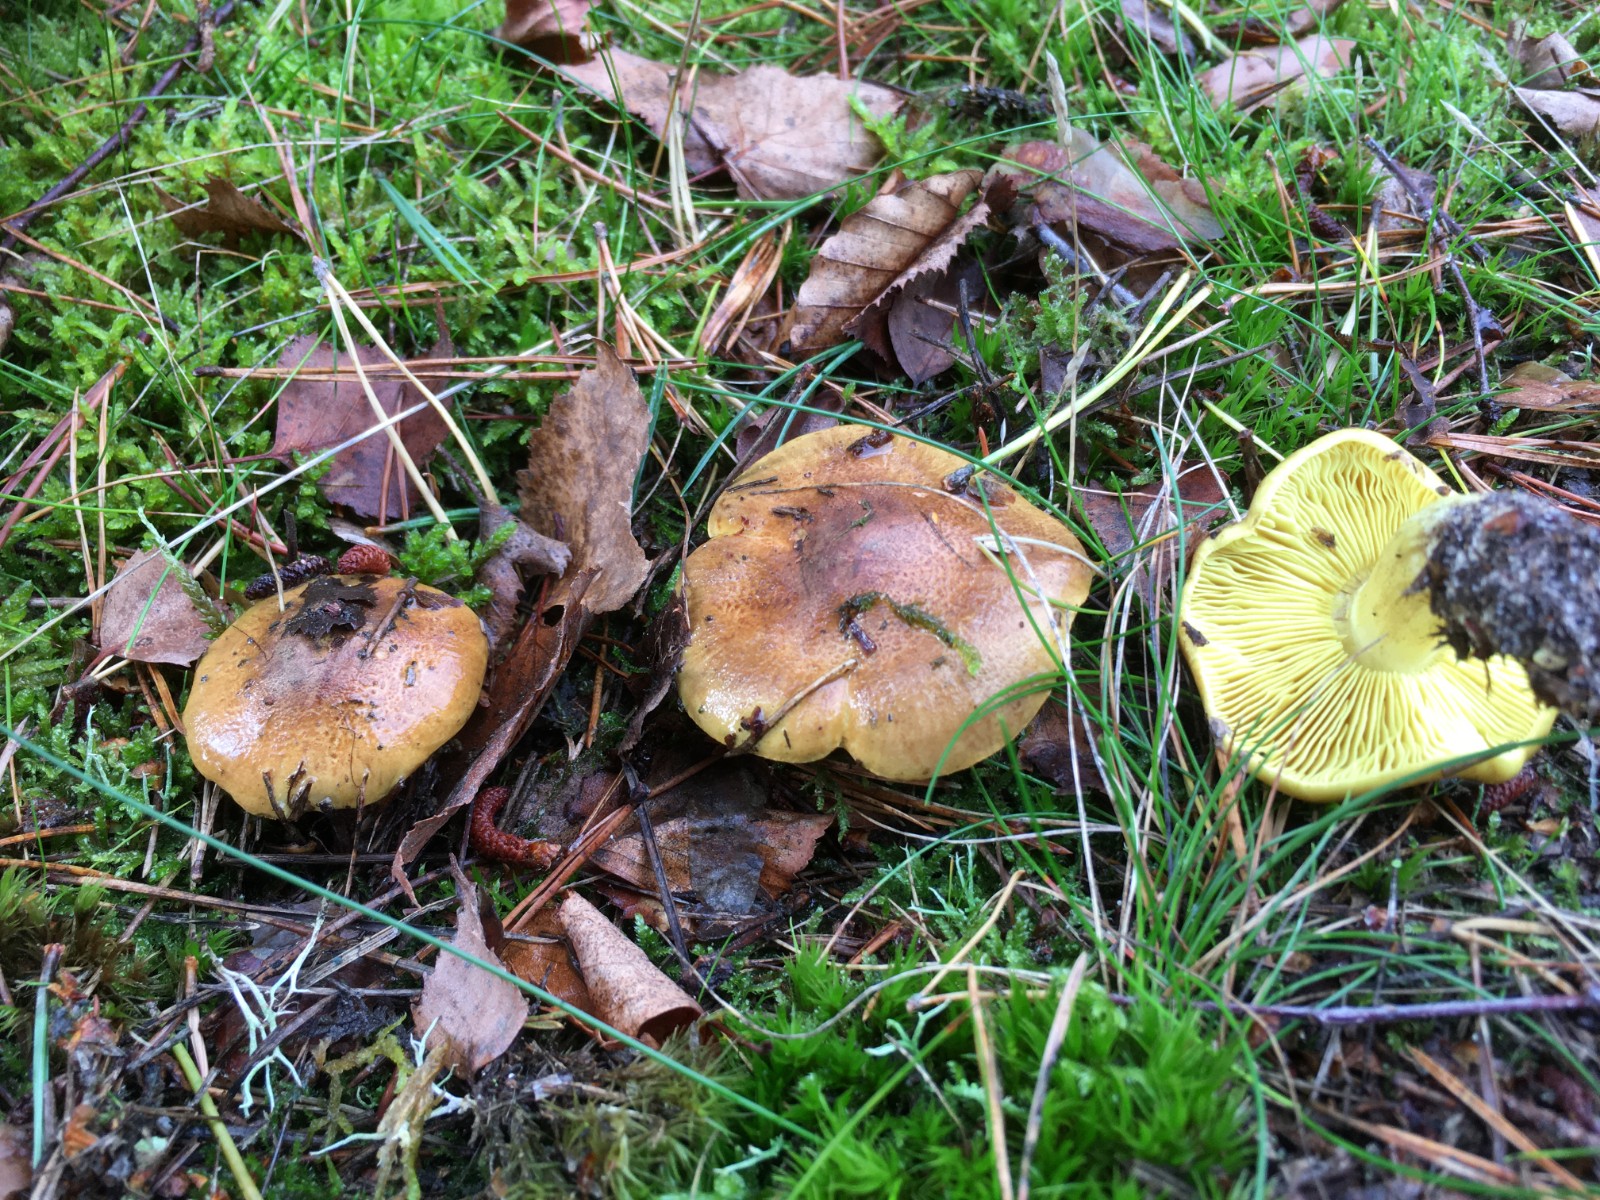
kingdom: Fungi
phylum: Basidiomycota
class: Agaricomycetes
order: Agaricales
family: Tricholomataceae
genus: Tricholoma
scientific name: Tricholoma equestre
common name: ægte ridderhat
